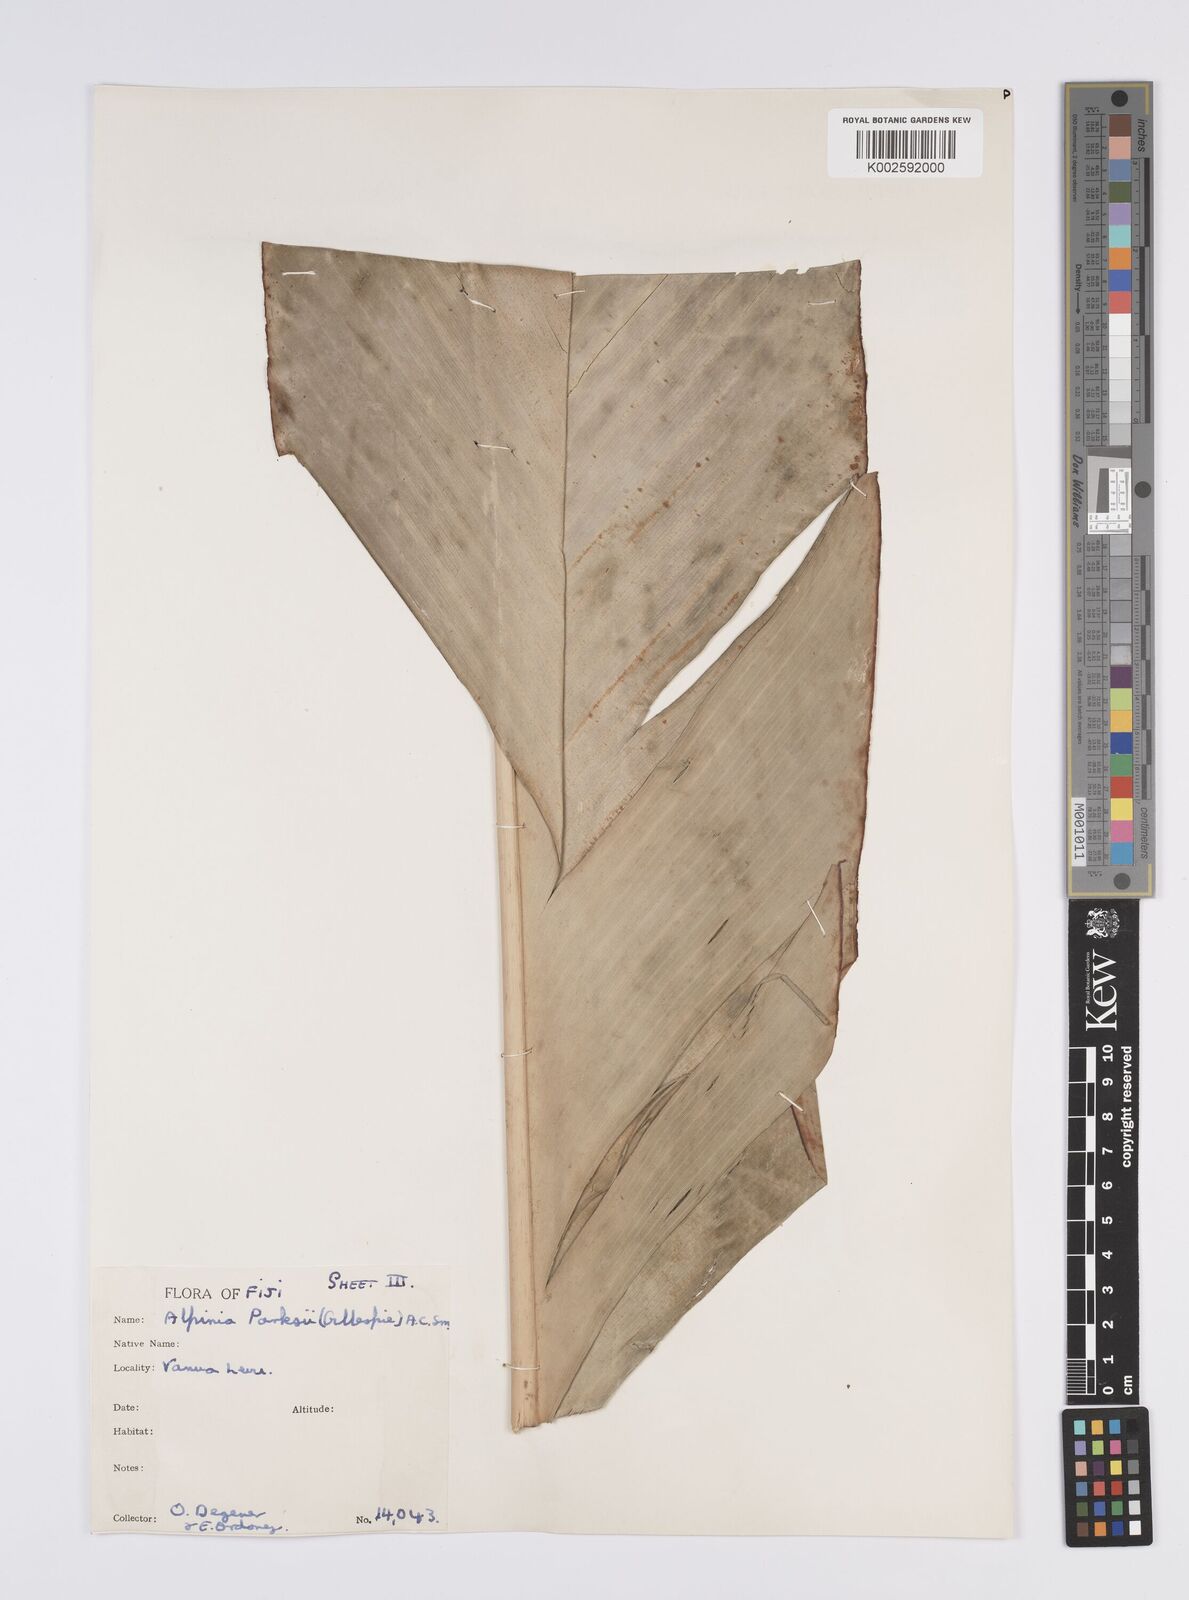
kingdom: Plantae
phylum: Tracheophyta
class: Liliopsida
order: Zingiberales
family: Zingiberaceae
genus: Alpinia
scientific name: Alpinia parksii
